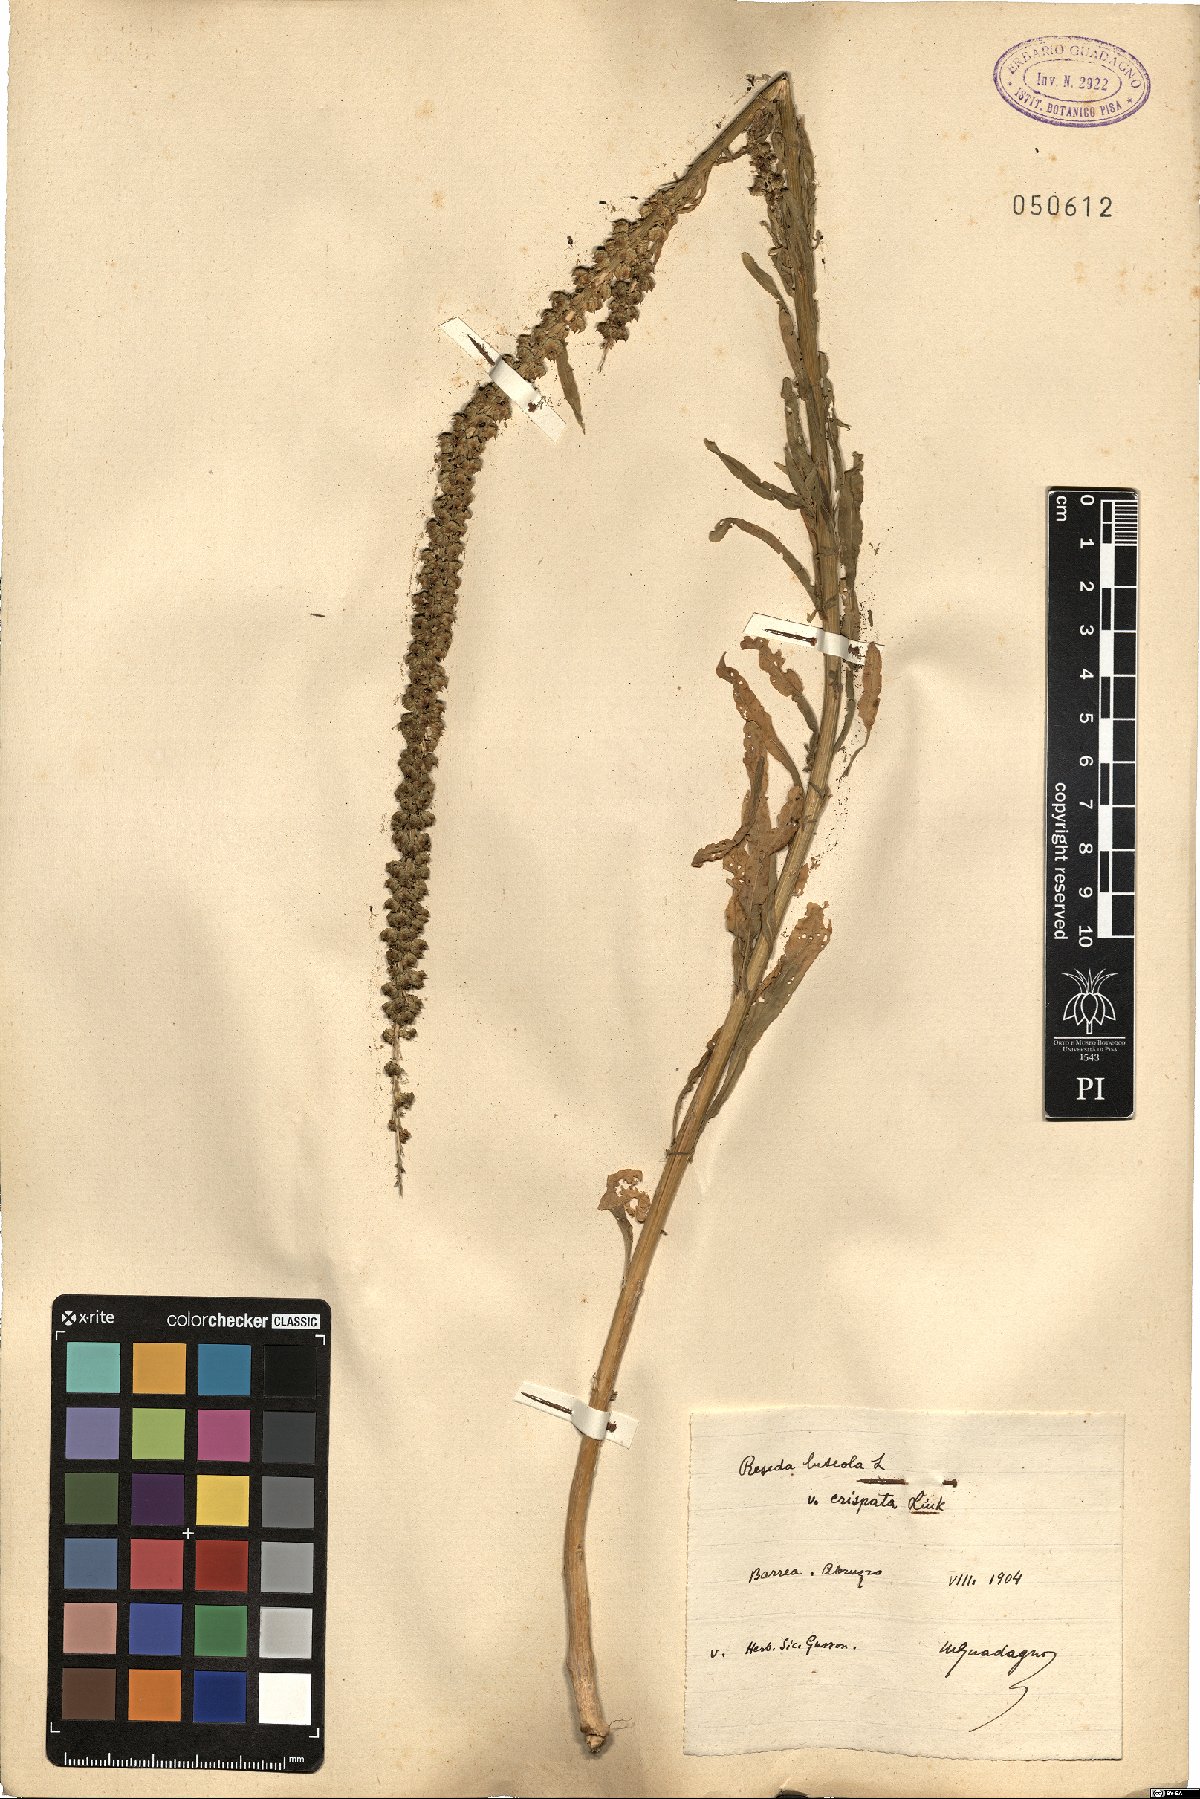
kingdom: Plantae
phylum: Tracheophyta
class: Magnoliopsida
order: Brassicales
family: Resedaceae
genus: Reseda
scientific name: Reseda luteola
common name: Weld
